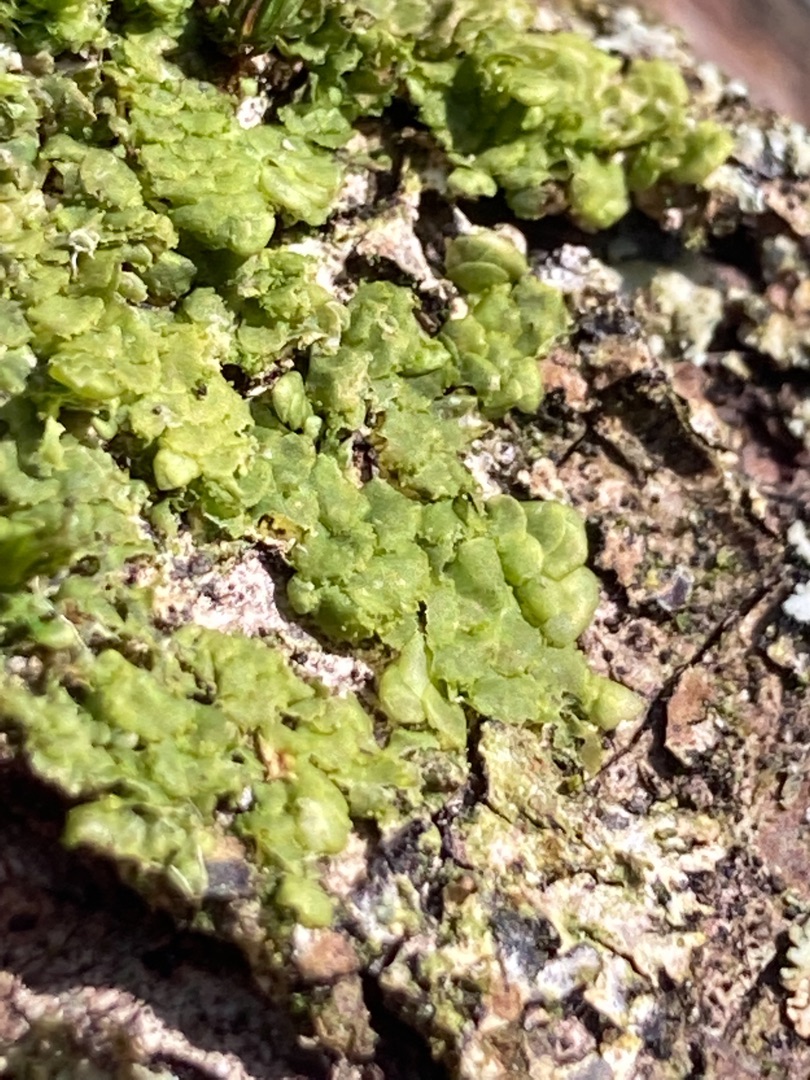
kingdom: Plantae
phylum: Marchantiophyta
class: Jungermanniopsida
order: Porellales
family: Radulaceae
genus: Radula
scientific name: Radula complanata
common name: Almindelig spartelmos
